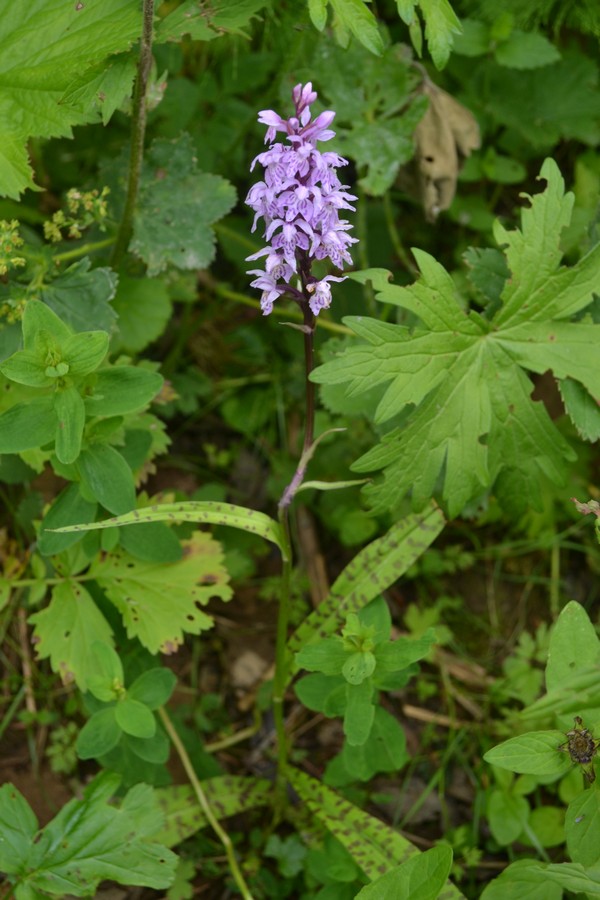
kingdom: Plantae
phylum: Tracheophyta
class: Liliopsida
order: Asparagales
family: Orchidaceae
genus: Dactylorhiza
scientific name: Dactylorhiza maculata
